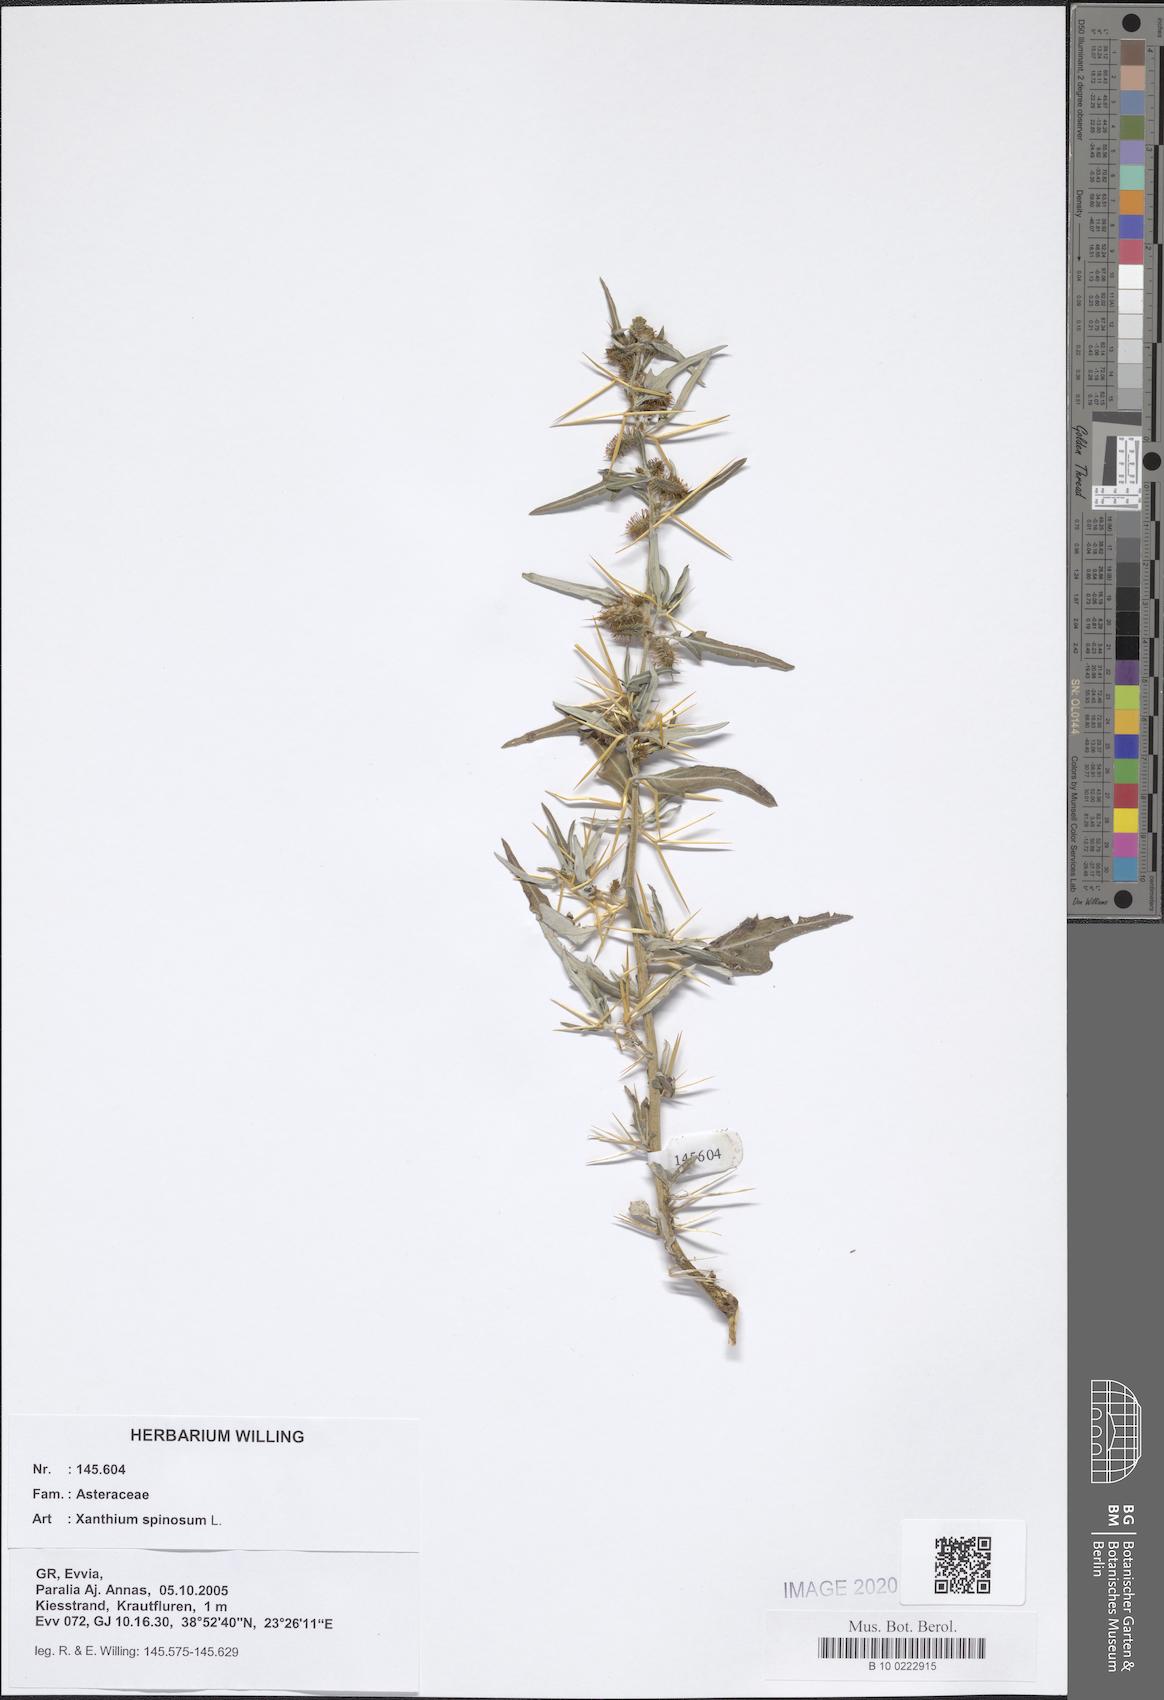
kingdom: Plantae
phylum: Tracheophyta
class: Magnoliopsida
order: Asterales
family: Asteraceae
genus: Xanthium
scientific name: Xanthium spinosum
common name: Spiny cocklebur
